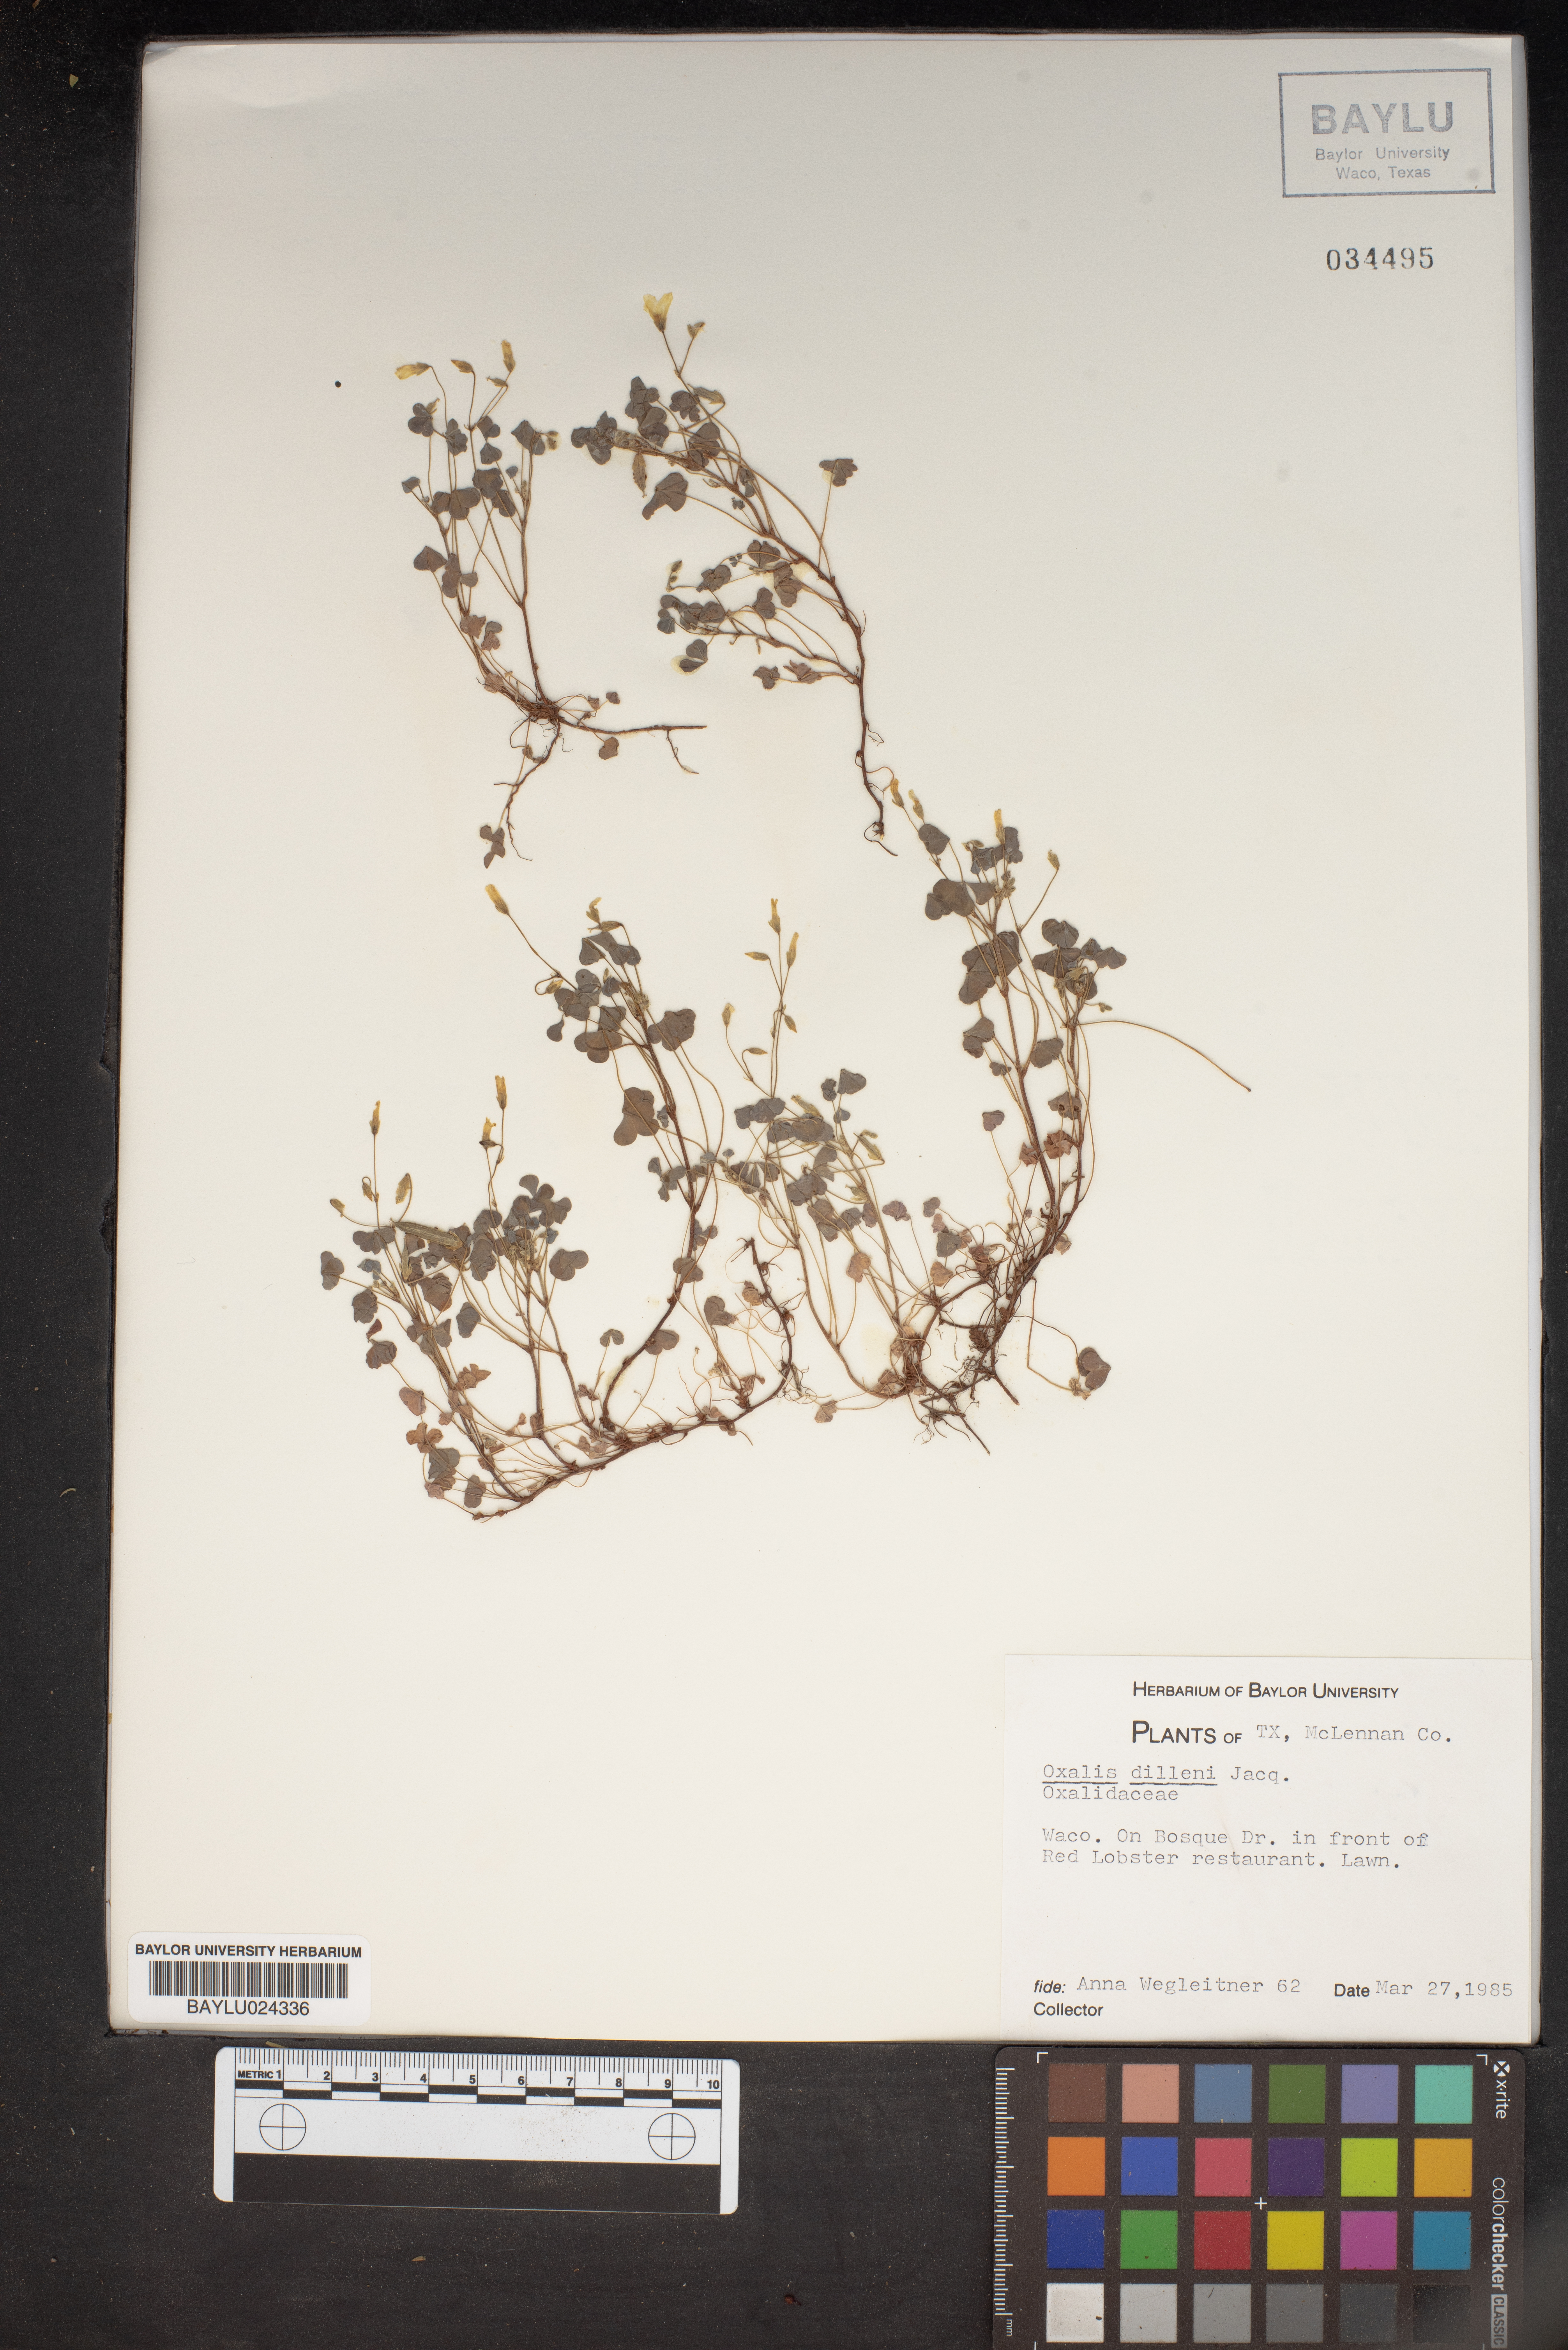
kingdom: Plantae
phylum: Tracheophyta
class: Magnoliopsida
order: Oxalidales
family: Oxalidaceae
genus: Oxalis
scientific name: Oxalis dillenii
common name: Sussex yellow-sorrel
